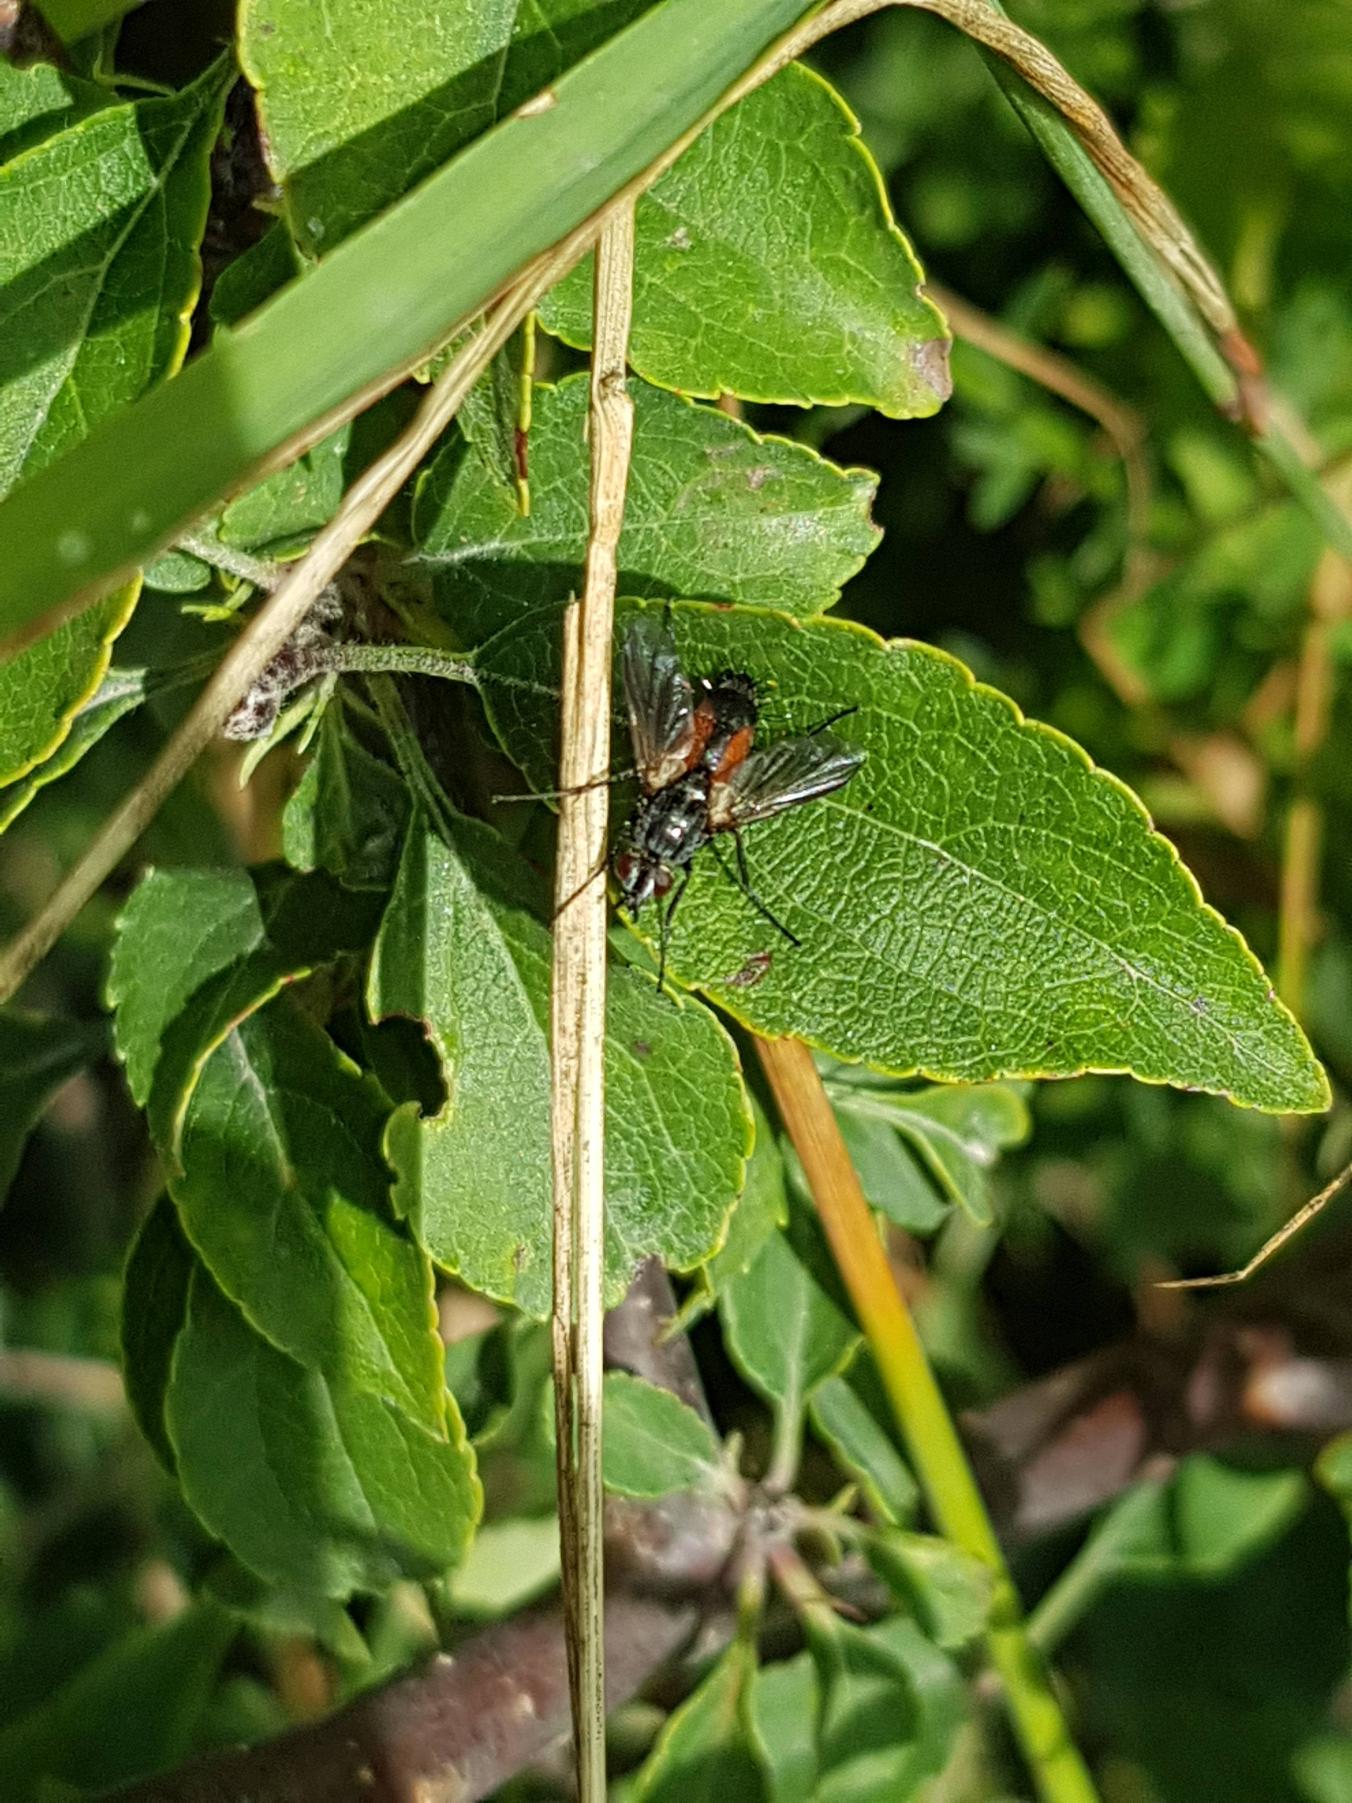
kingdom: Animalia
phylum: Arthropoda
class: Insecta
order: Diptera
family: Tachinidae
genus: Eriothrix
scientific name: Eriothrix rufomaculatus
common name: Rød snylteflue
